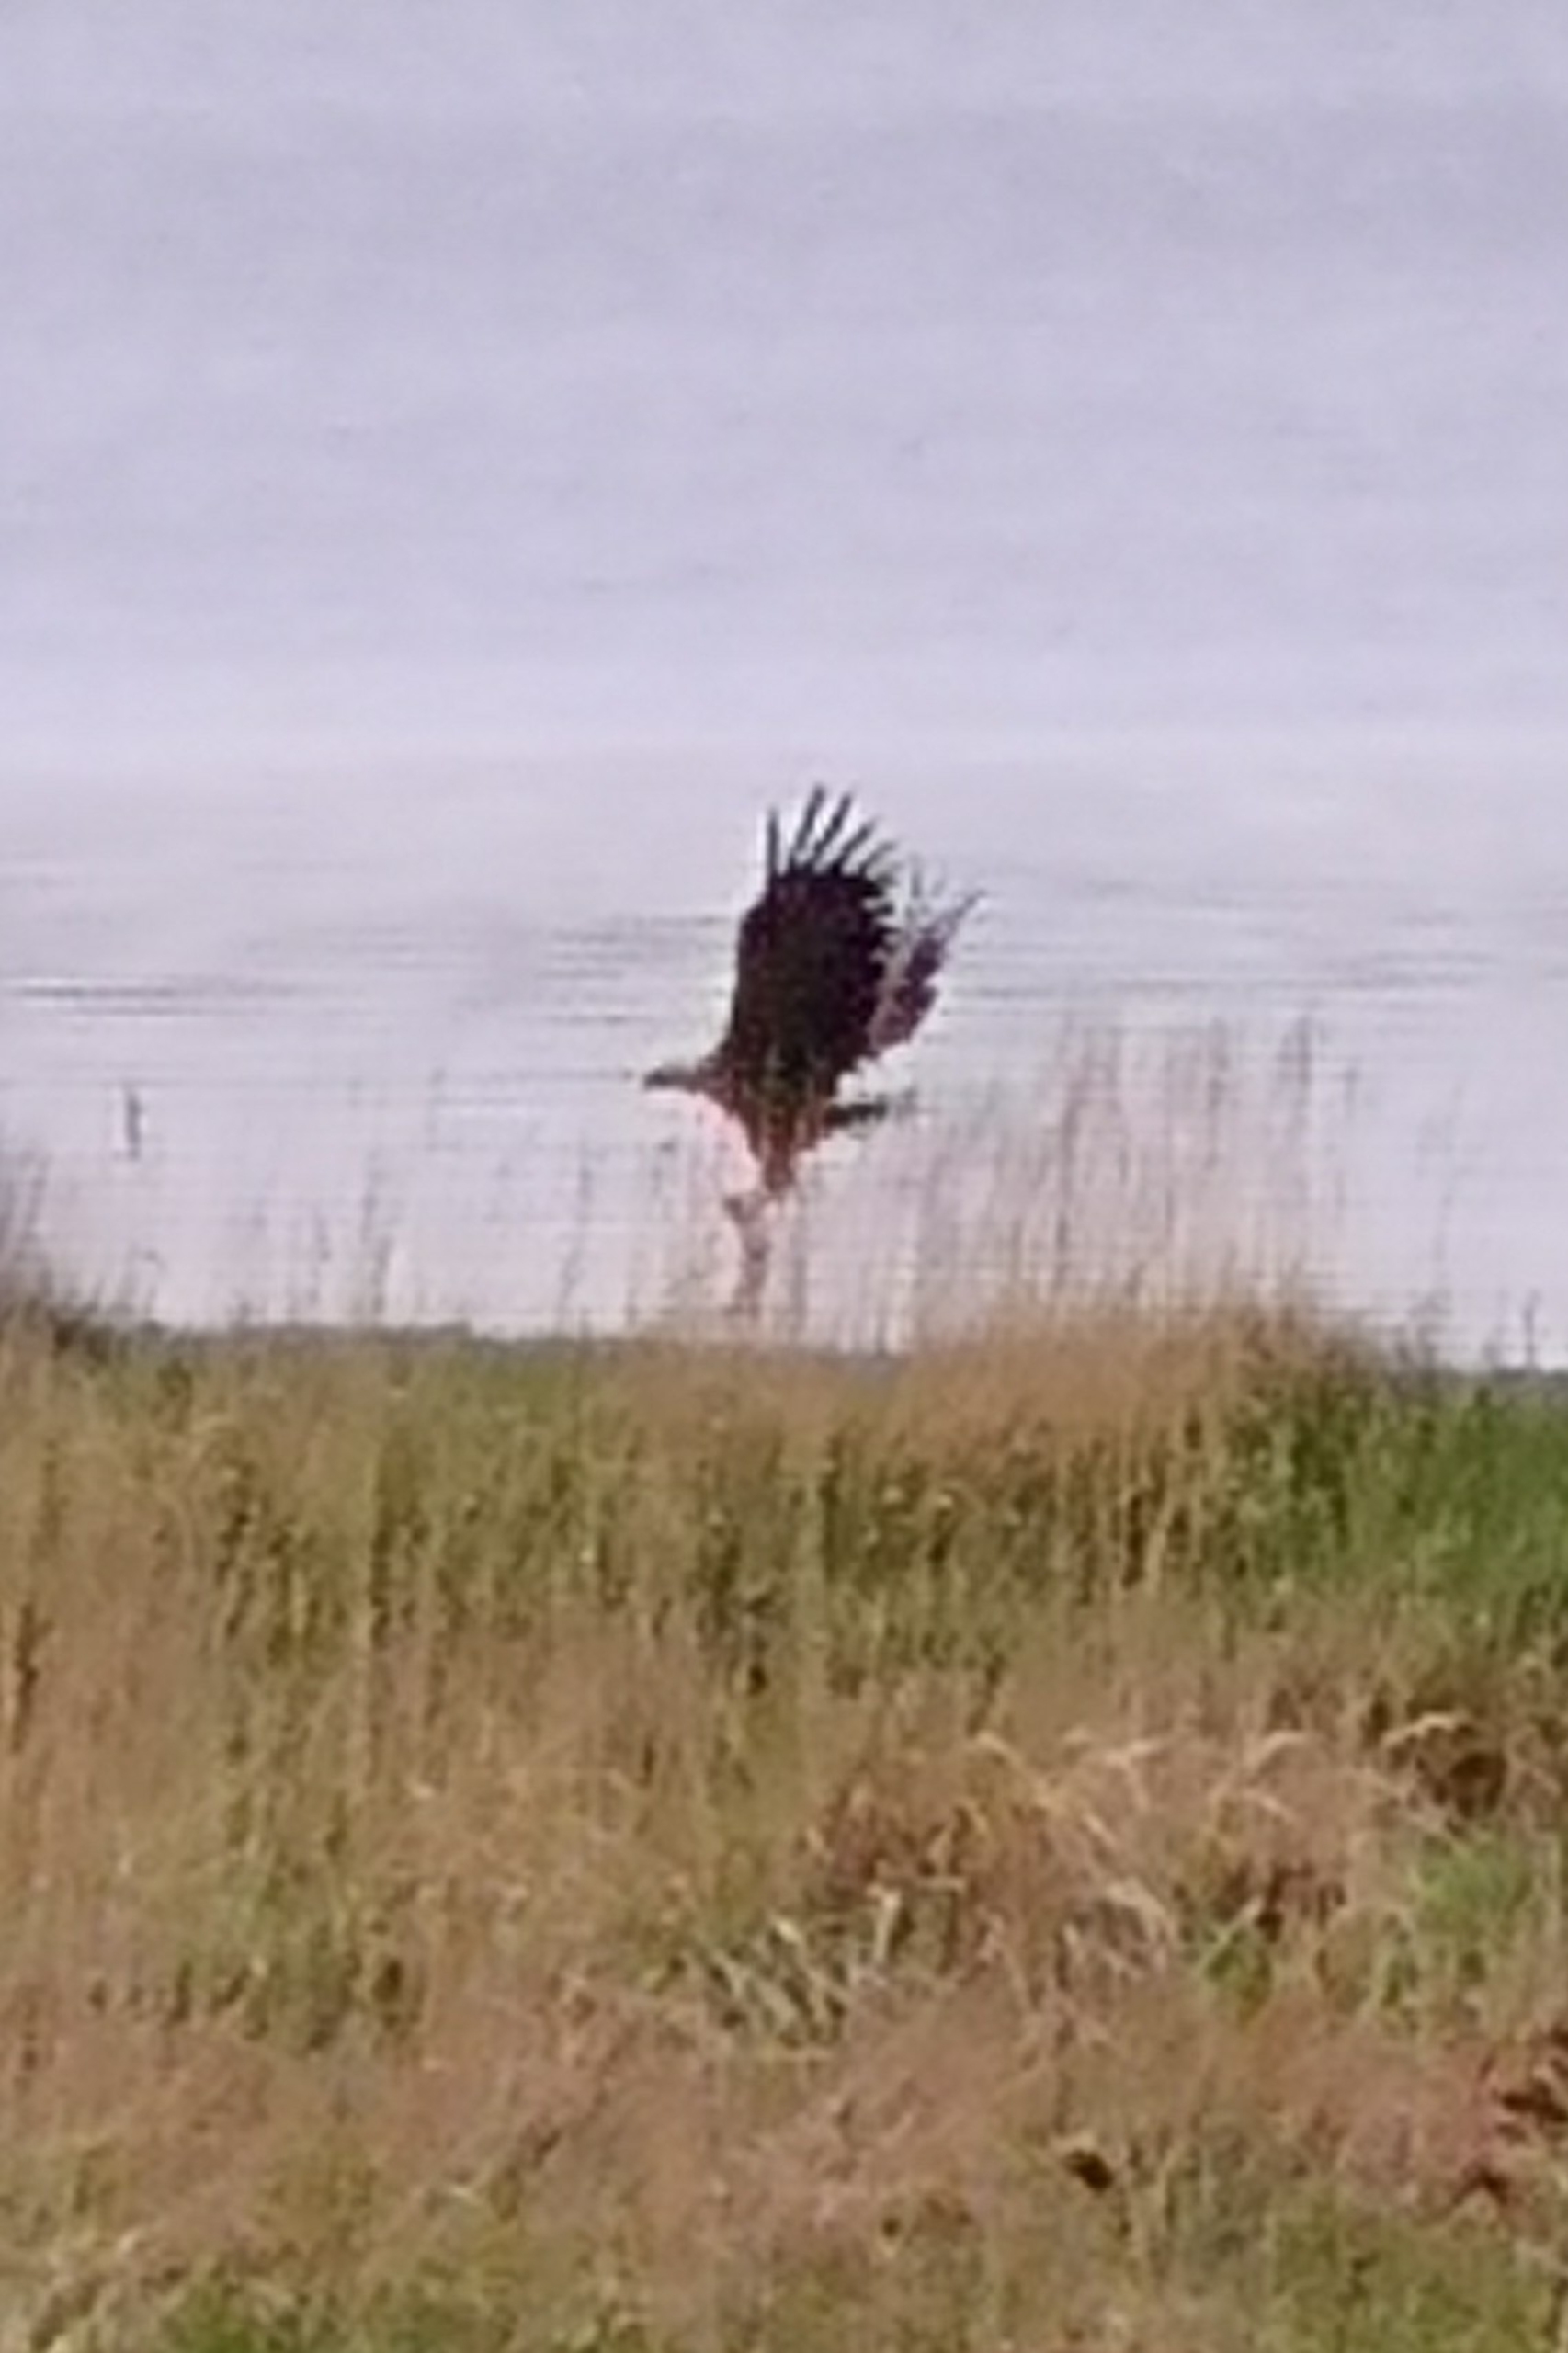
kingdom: Animalia
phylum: Chordata
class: Aves
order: Accipitriformes
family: Accipitridae
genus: Haliaeetus
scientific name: Haliaeetus albicilla
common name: Havørn
